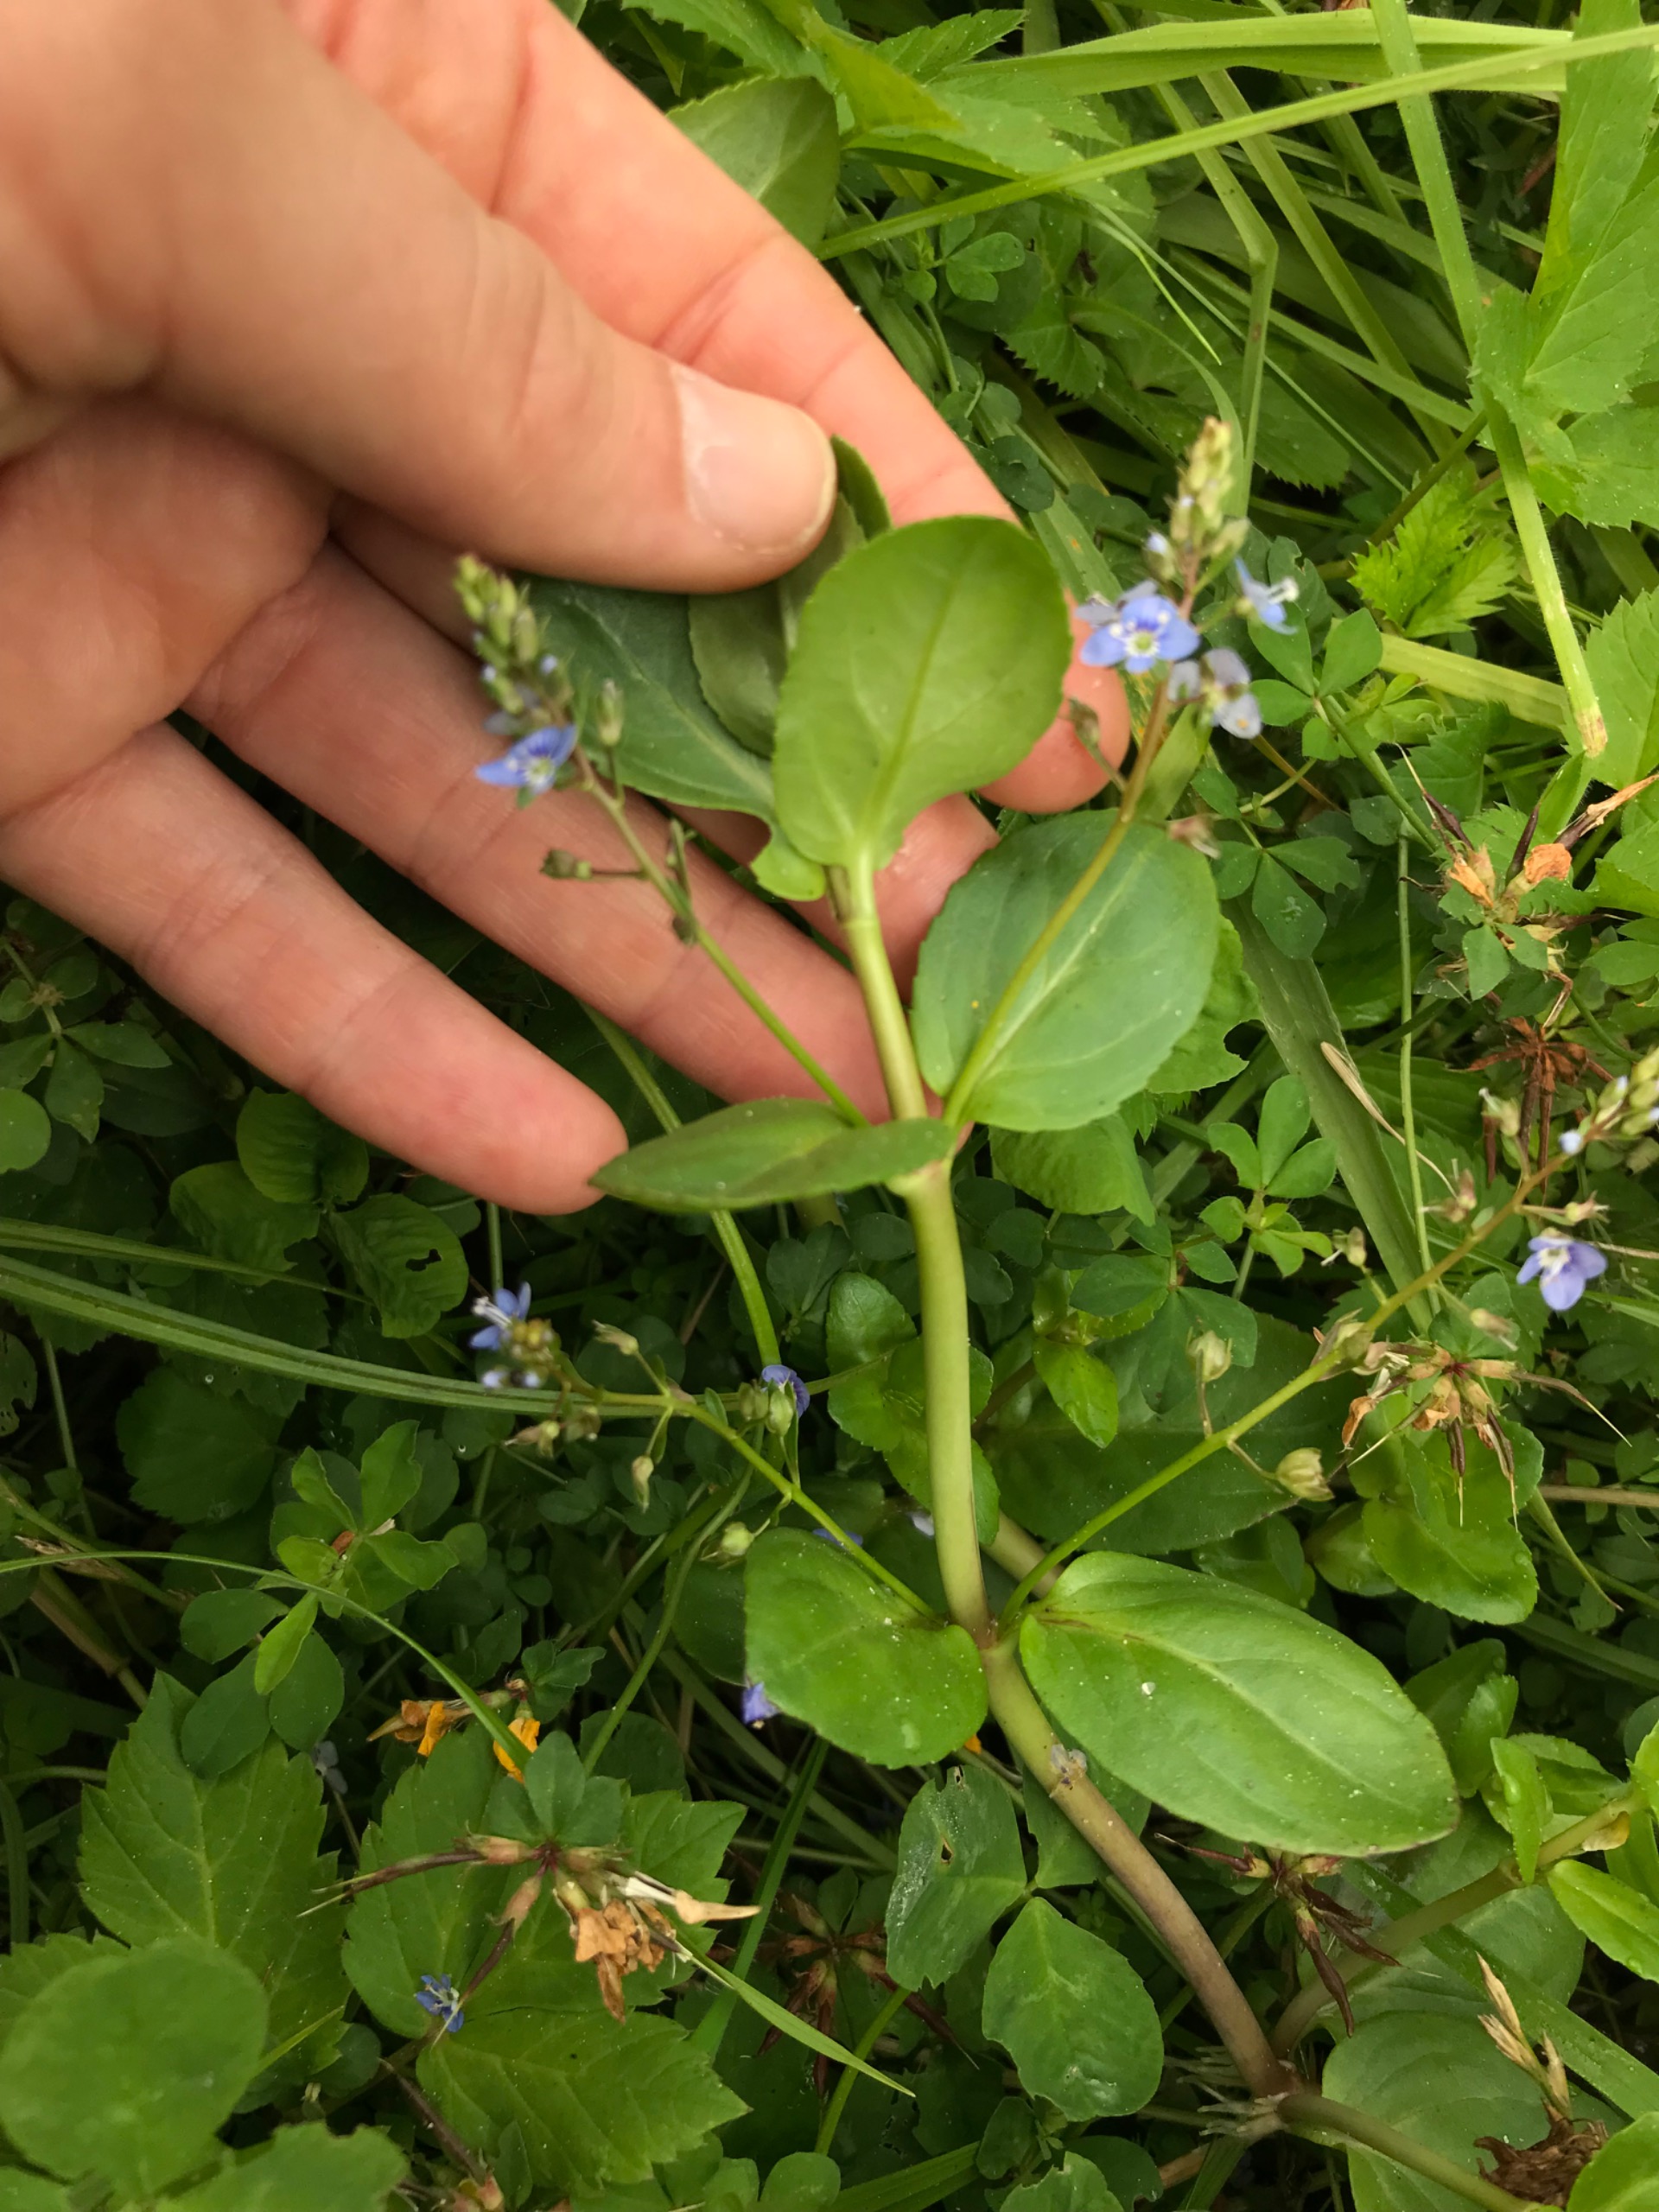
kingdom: Plantae
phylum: Tracheophyta
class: Magnoliopsida
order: Lamiales
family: Plantaginaceae
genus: Veronica
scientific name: Veronica beccabunga
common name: Tykbladet ærenpris
